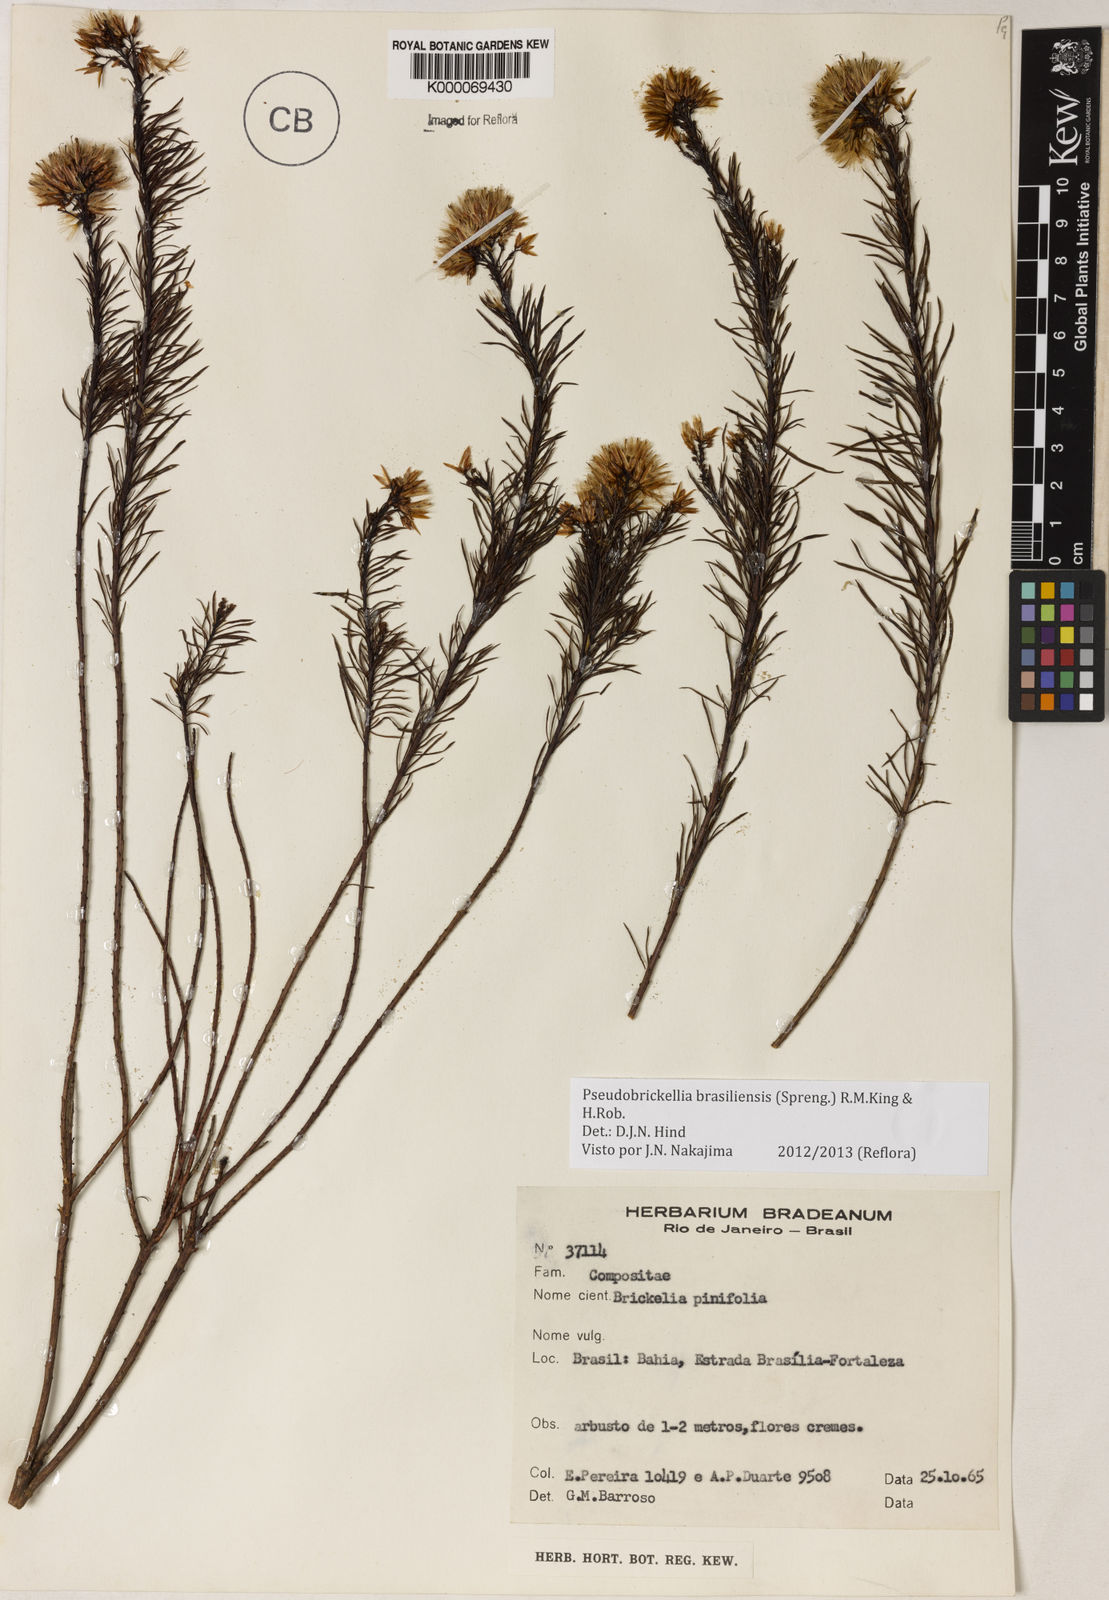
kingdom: Plantae
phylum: Tracheophyta
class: Magnoliopsida
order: Asterales
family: Asteraceae
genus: Pseudobrickellia
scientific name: Pseudobrickellia brasiliensis
